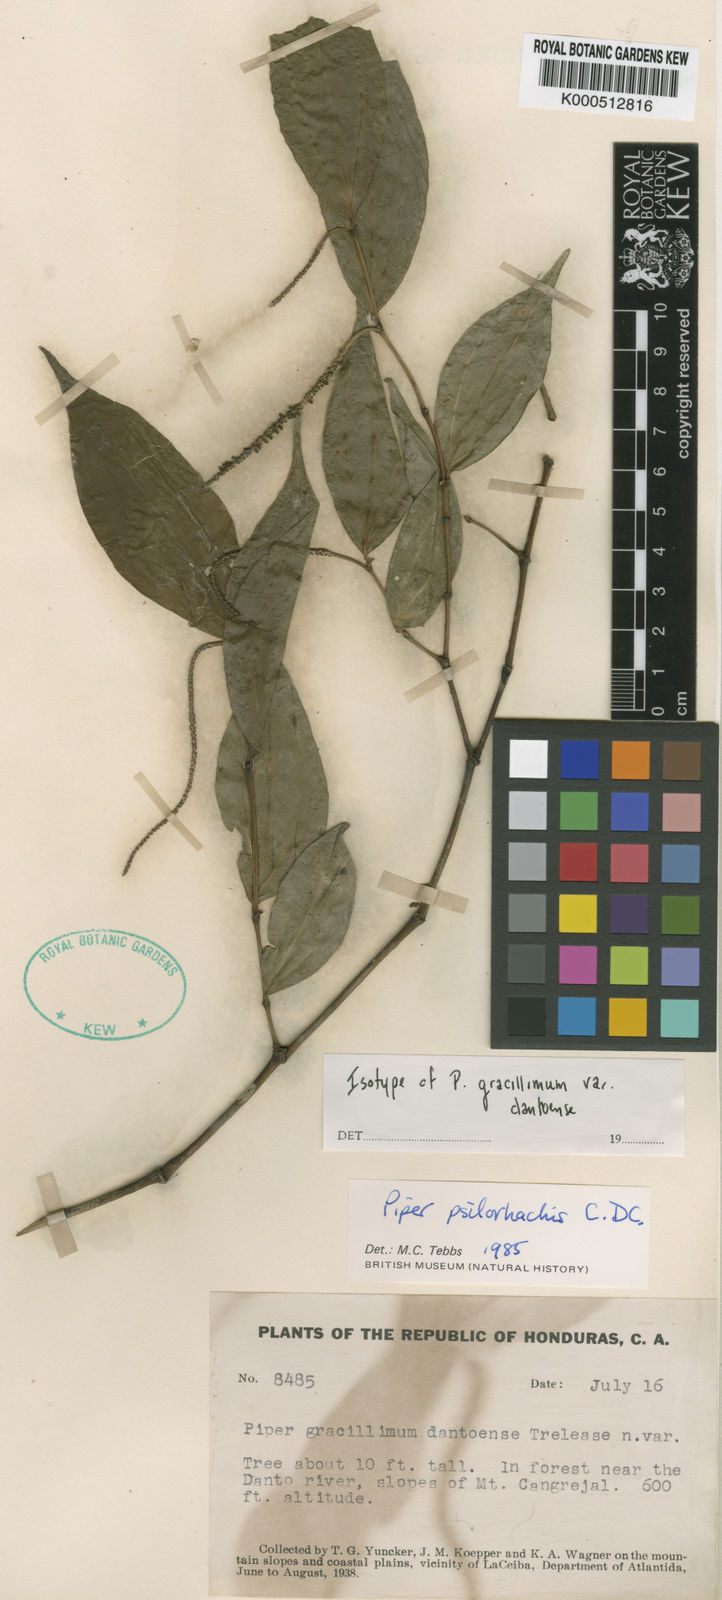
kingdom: Plantae
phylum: Tracheophyta
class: Magnoliopsida
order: Piperales
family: Piperaceae
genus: Piper
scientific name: Piper cubilquitzianum
